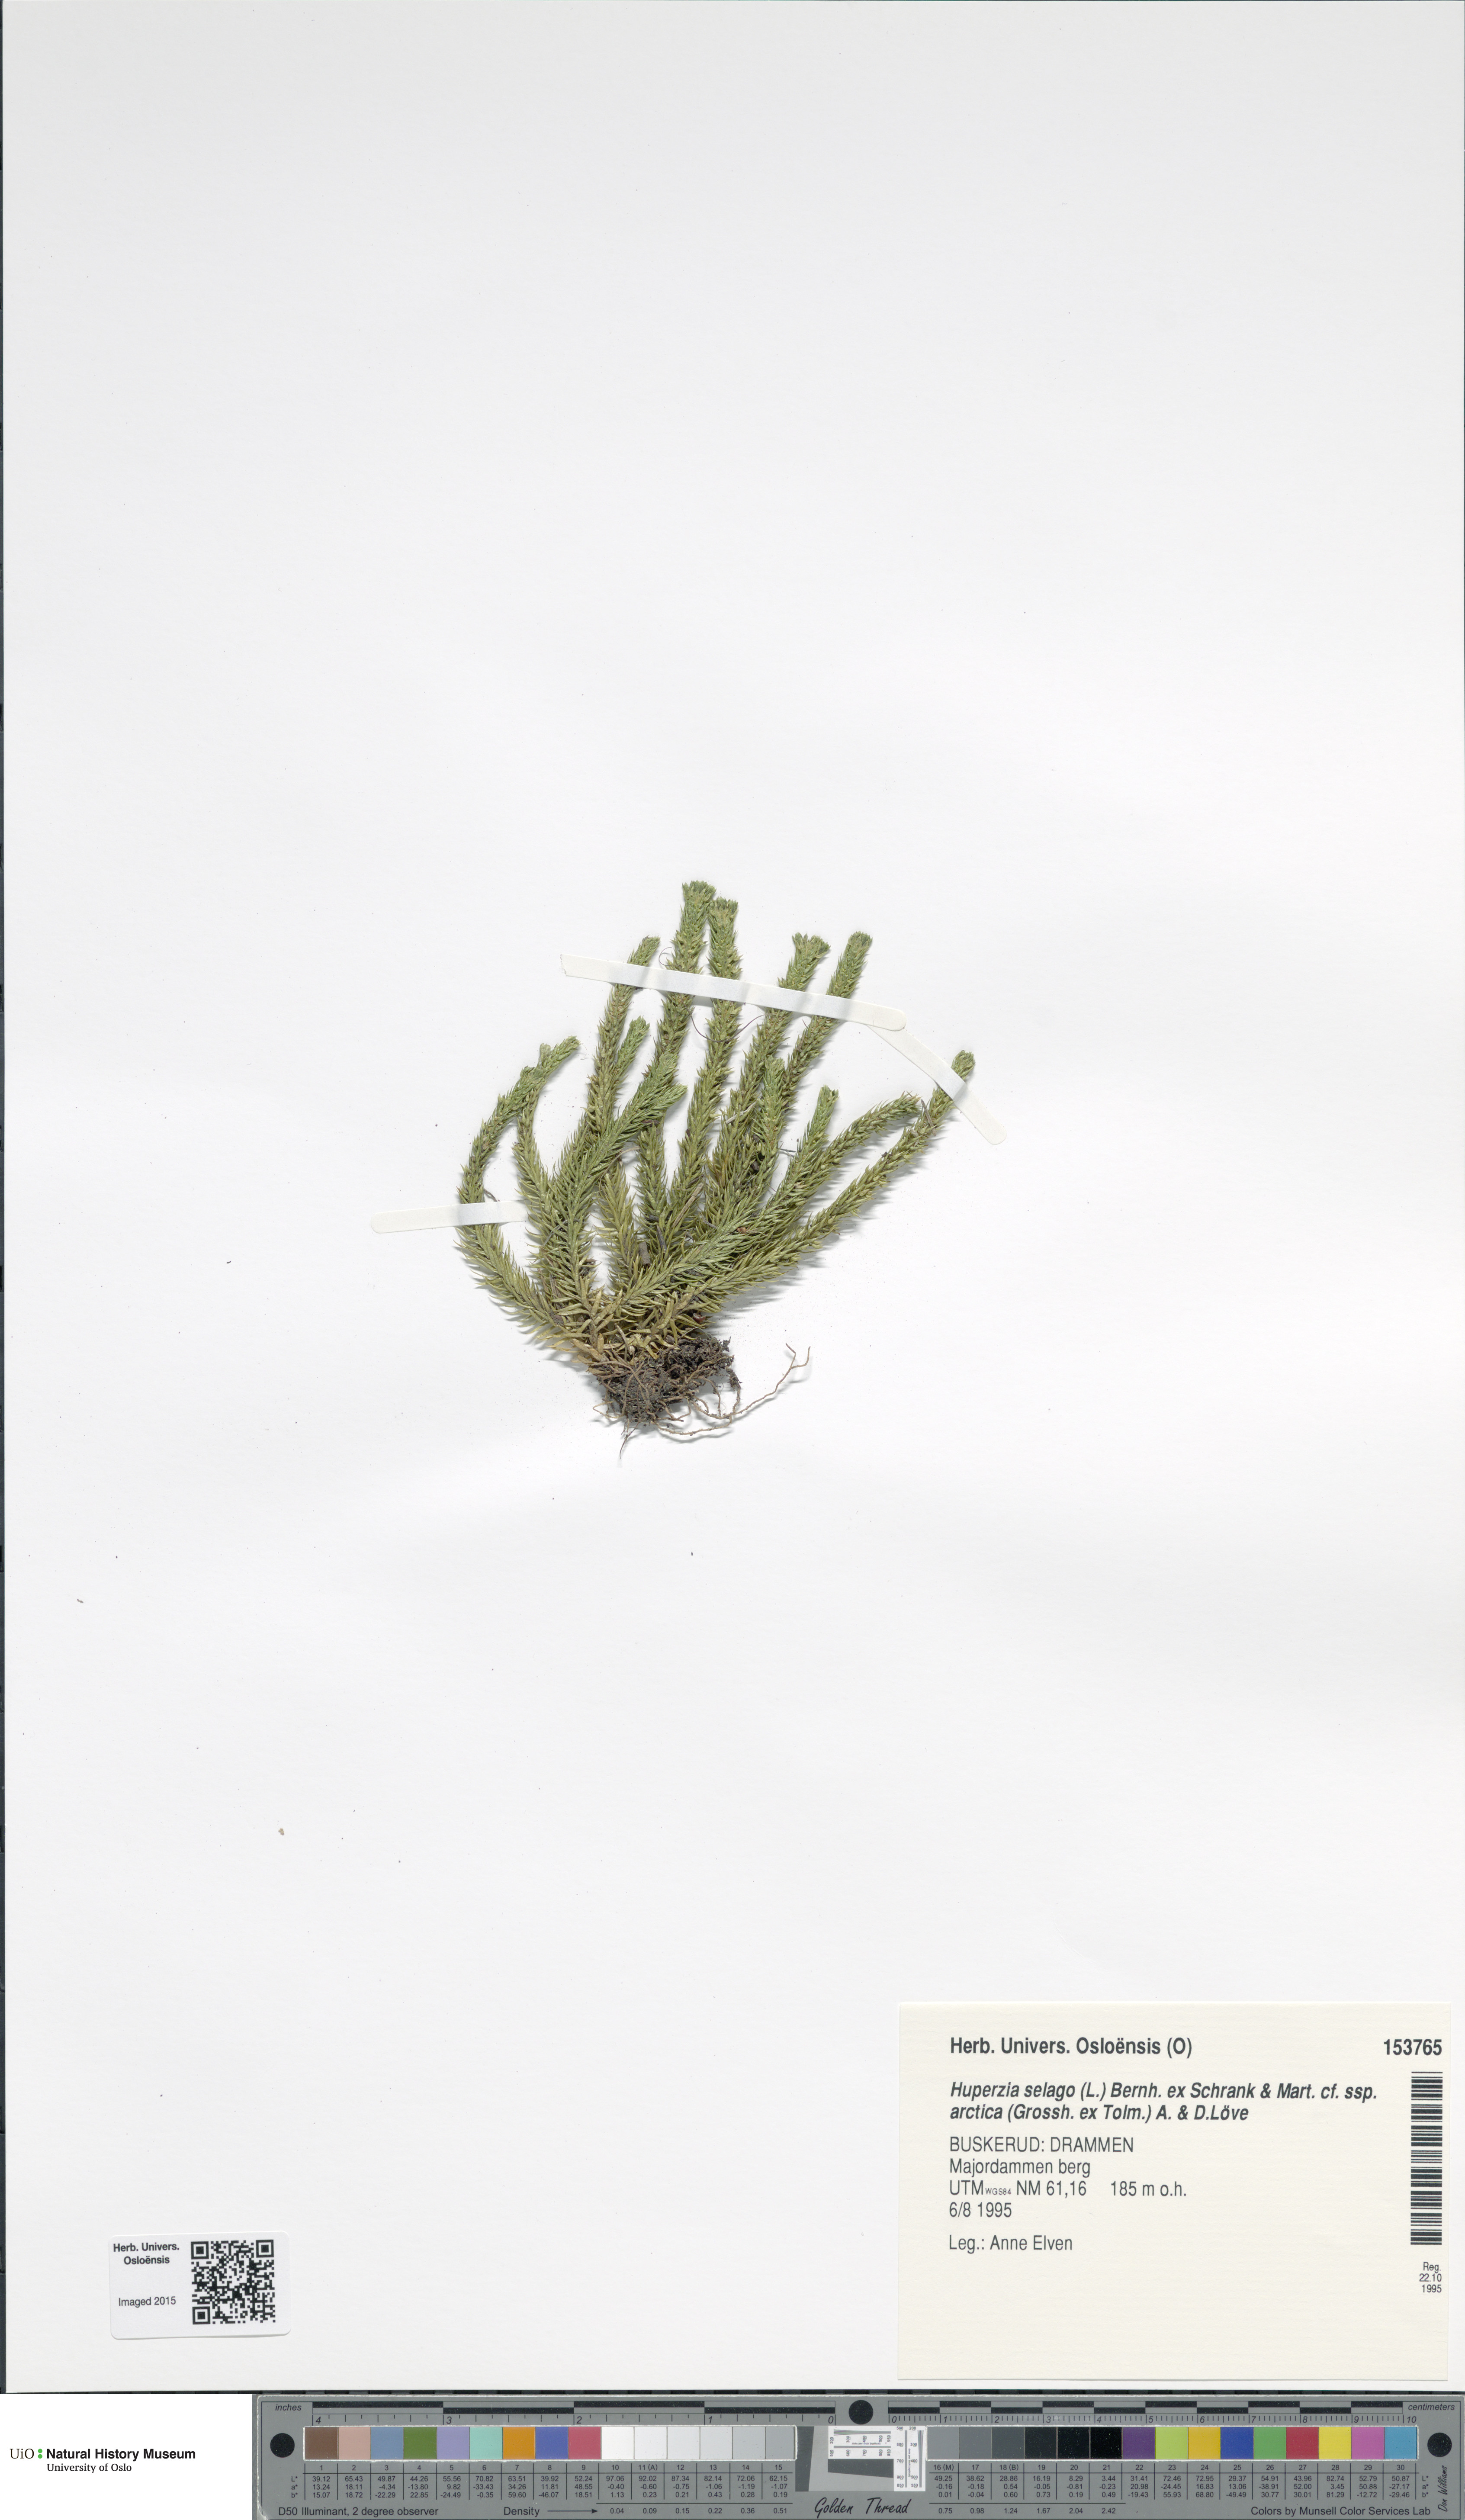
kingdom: Plantae
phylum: Tracheophyta
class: Lycopodiopsida
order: Lycopodiales
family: Lycopodiaceae
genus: Huperzia
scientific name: Huperzia selago
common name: Northern firmoss
